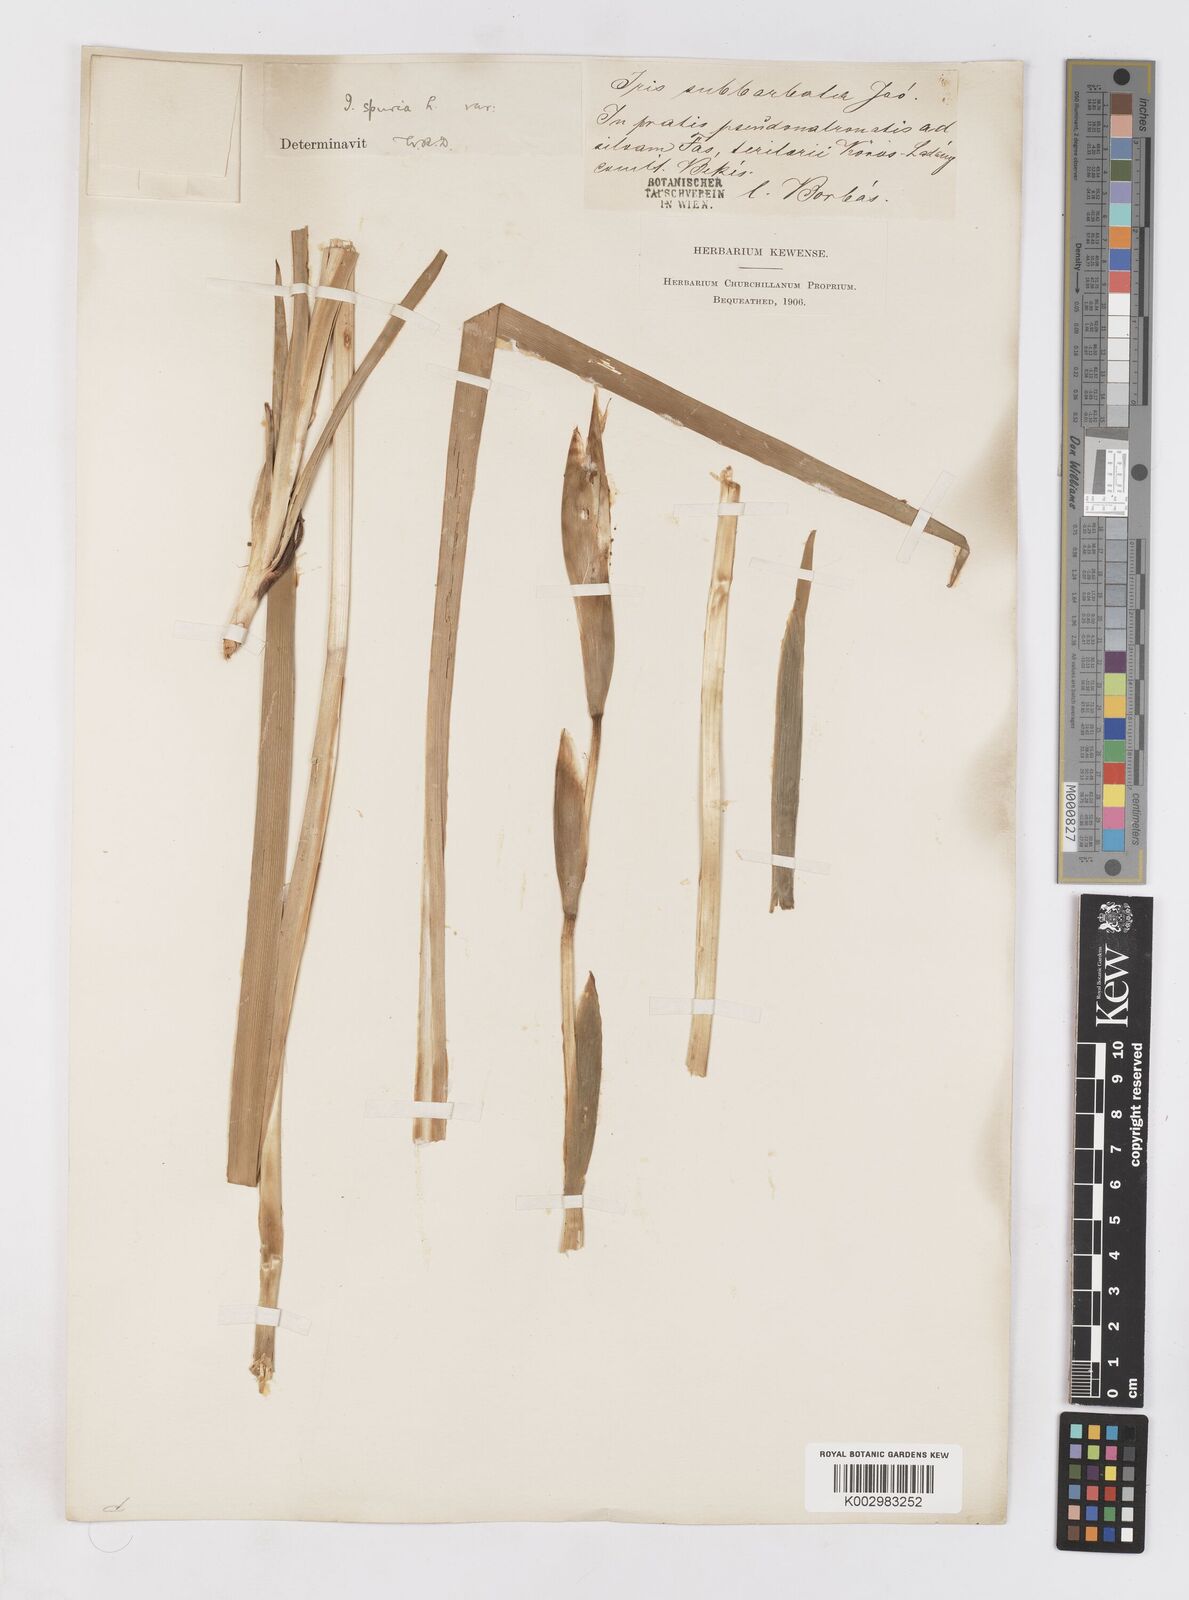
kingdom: Plantae
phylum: Tracheophyta
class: Liliopsida
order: Asparagales
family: Iridaceae
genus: Iris
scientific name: Iris spuria
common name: Blue iris
